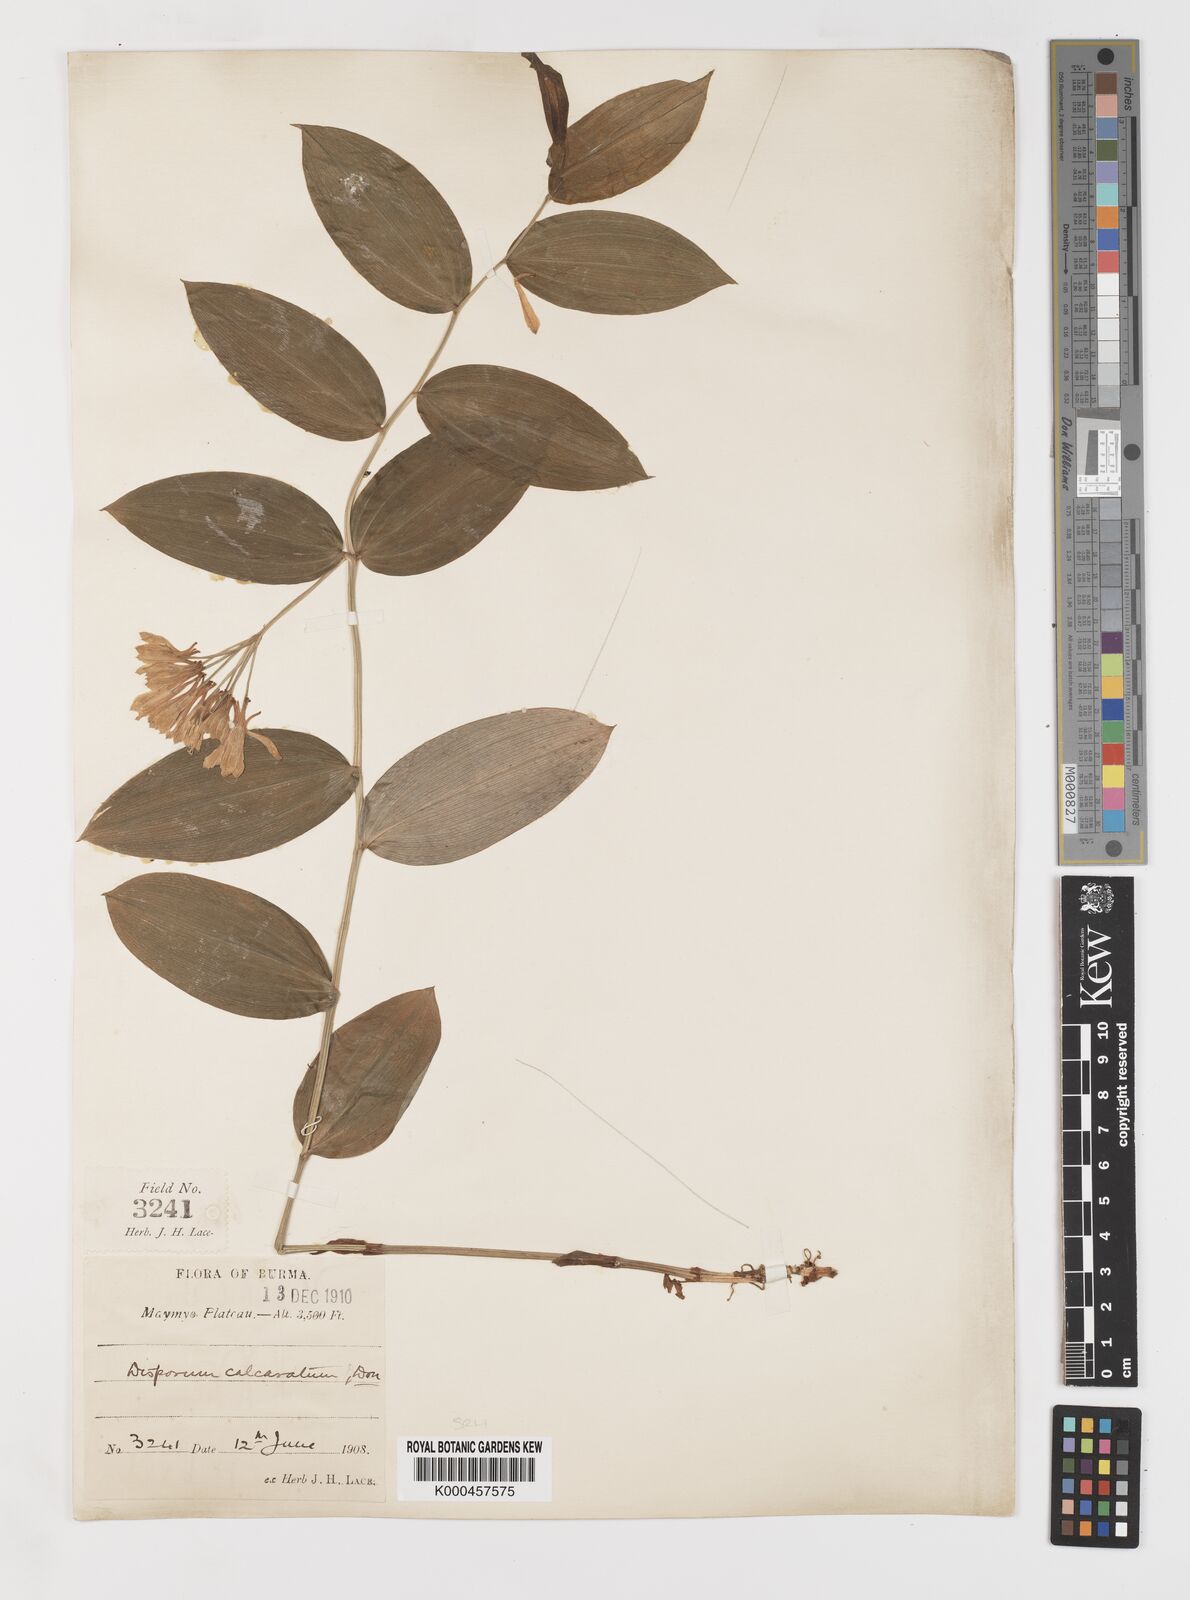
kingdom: Plantae
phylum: Tracheophyta
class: Liliopsida
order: Liliales
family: Colchicaceae
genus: Disporum
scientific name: Disporum calcaratum
